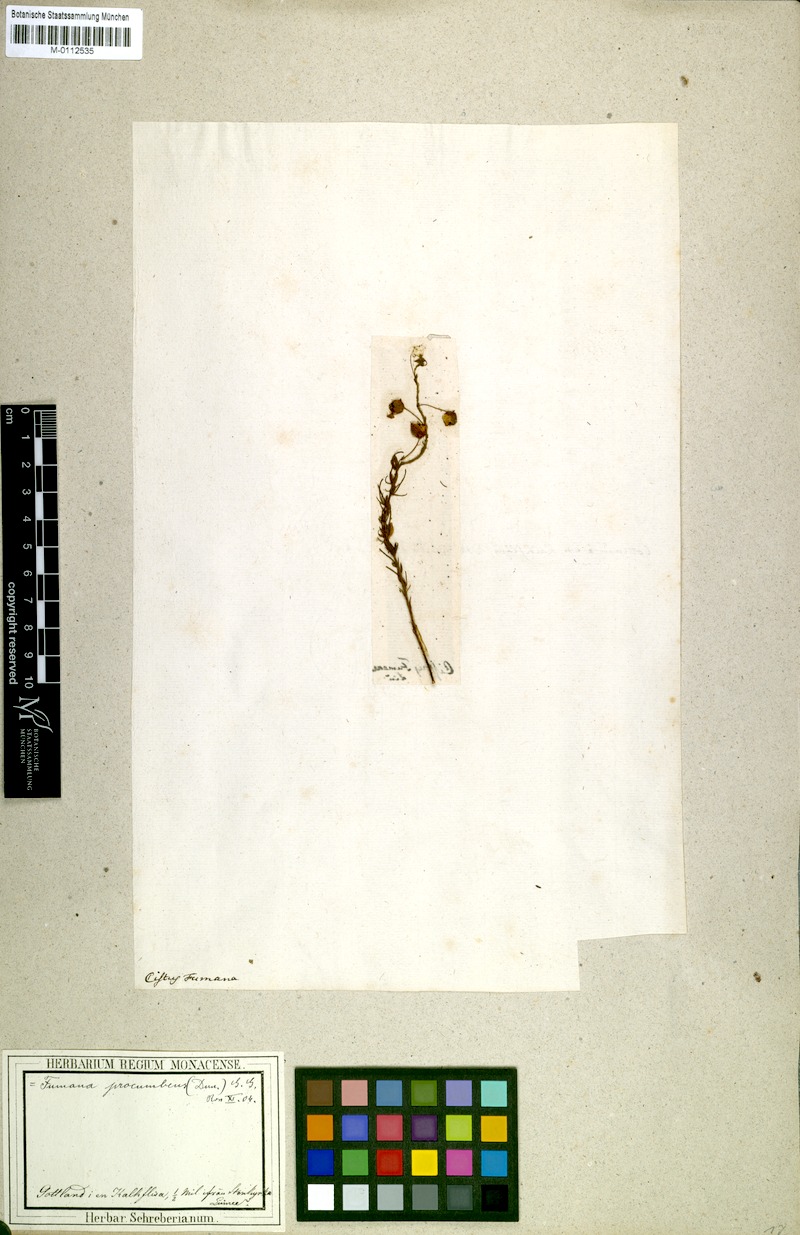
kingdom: Plantae
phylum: Tracheophyta
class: Magnoliopsida
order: Malvales
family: Cistaceae
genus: Fumana
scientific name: Fumana procumbens
